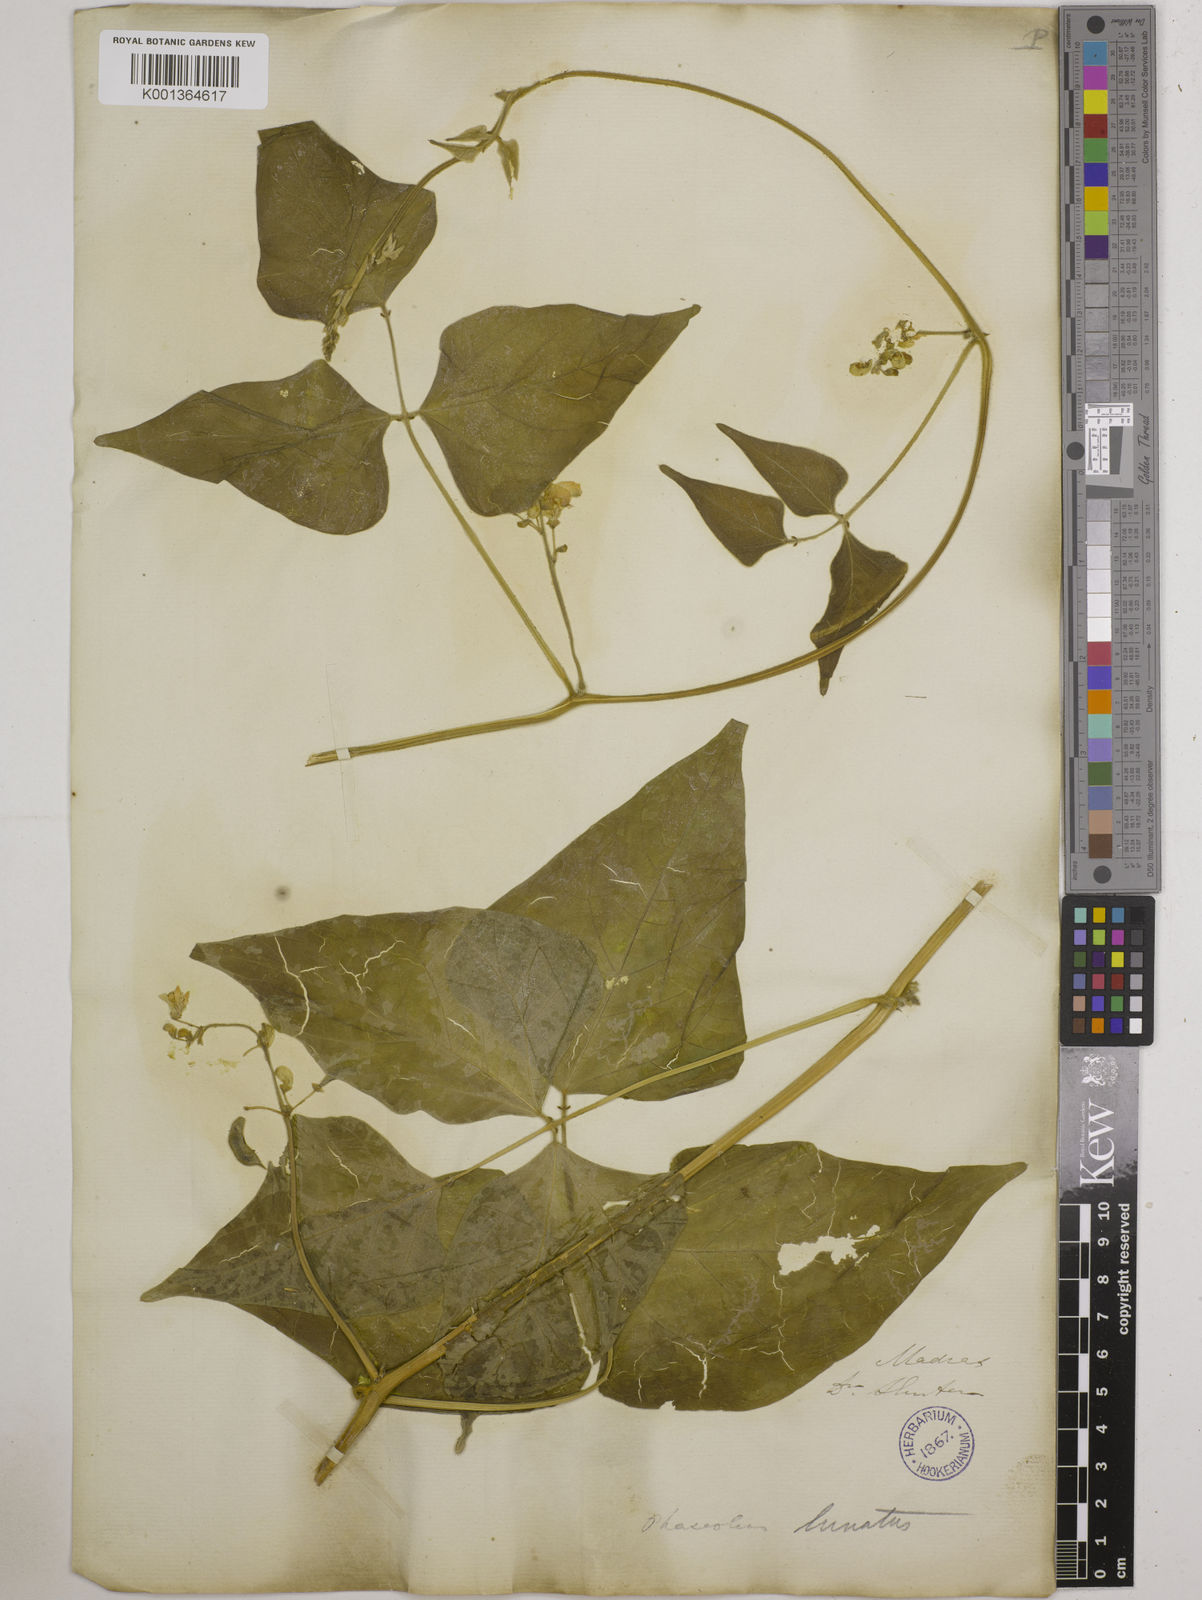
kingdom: Plantae
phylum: Tracheophyta
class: Magnoliopsida
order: Fabales
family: Fabaceae
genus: Phaseolus
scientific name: Phaseolus lunatus
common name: Sieva bean
